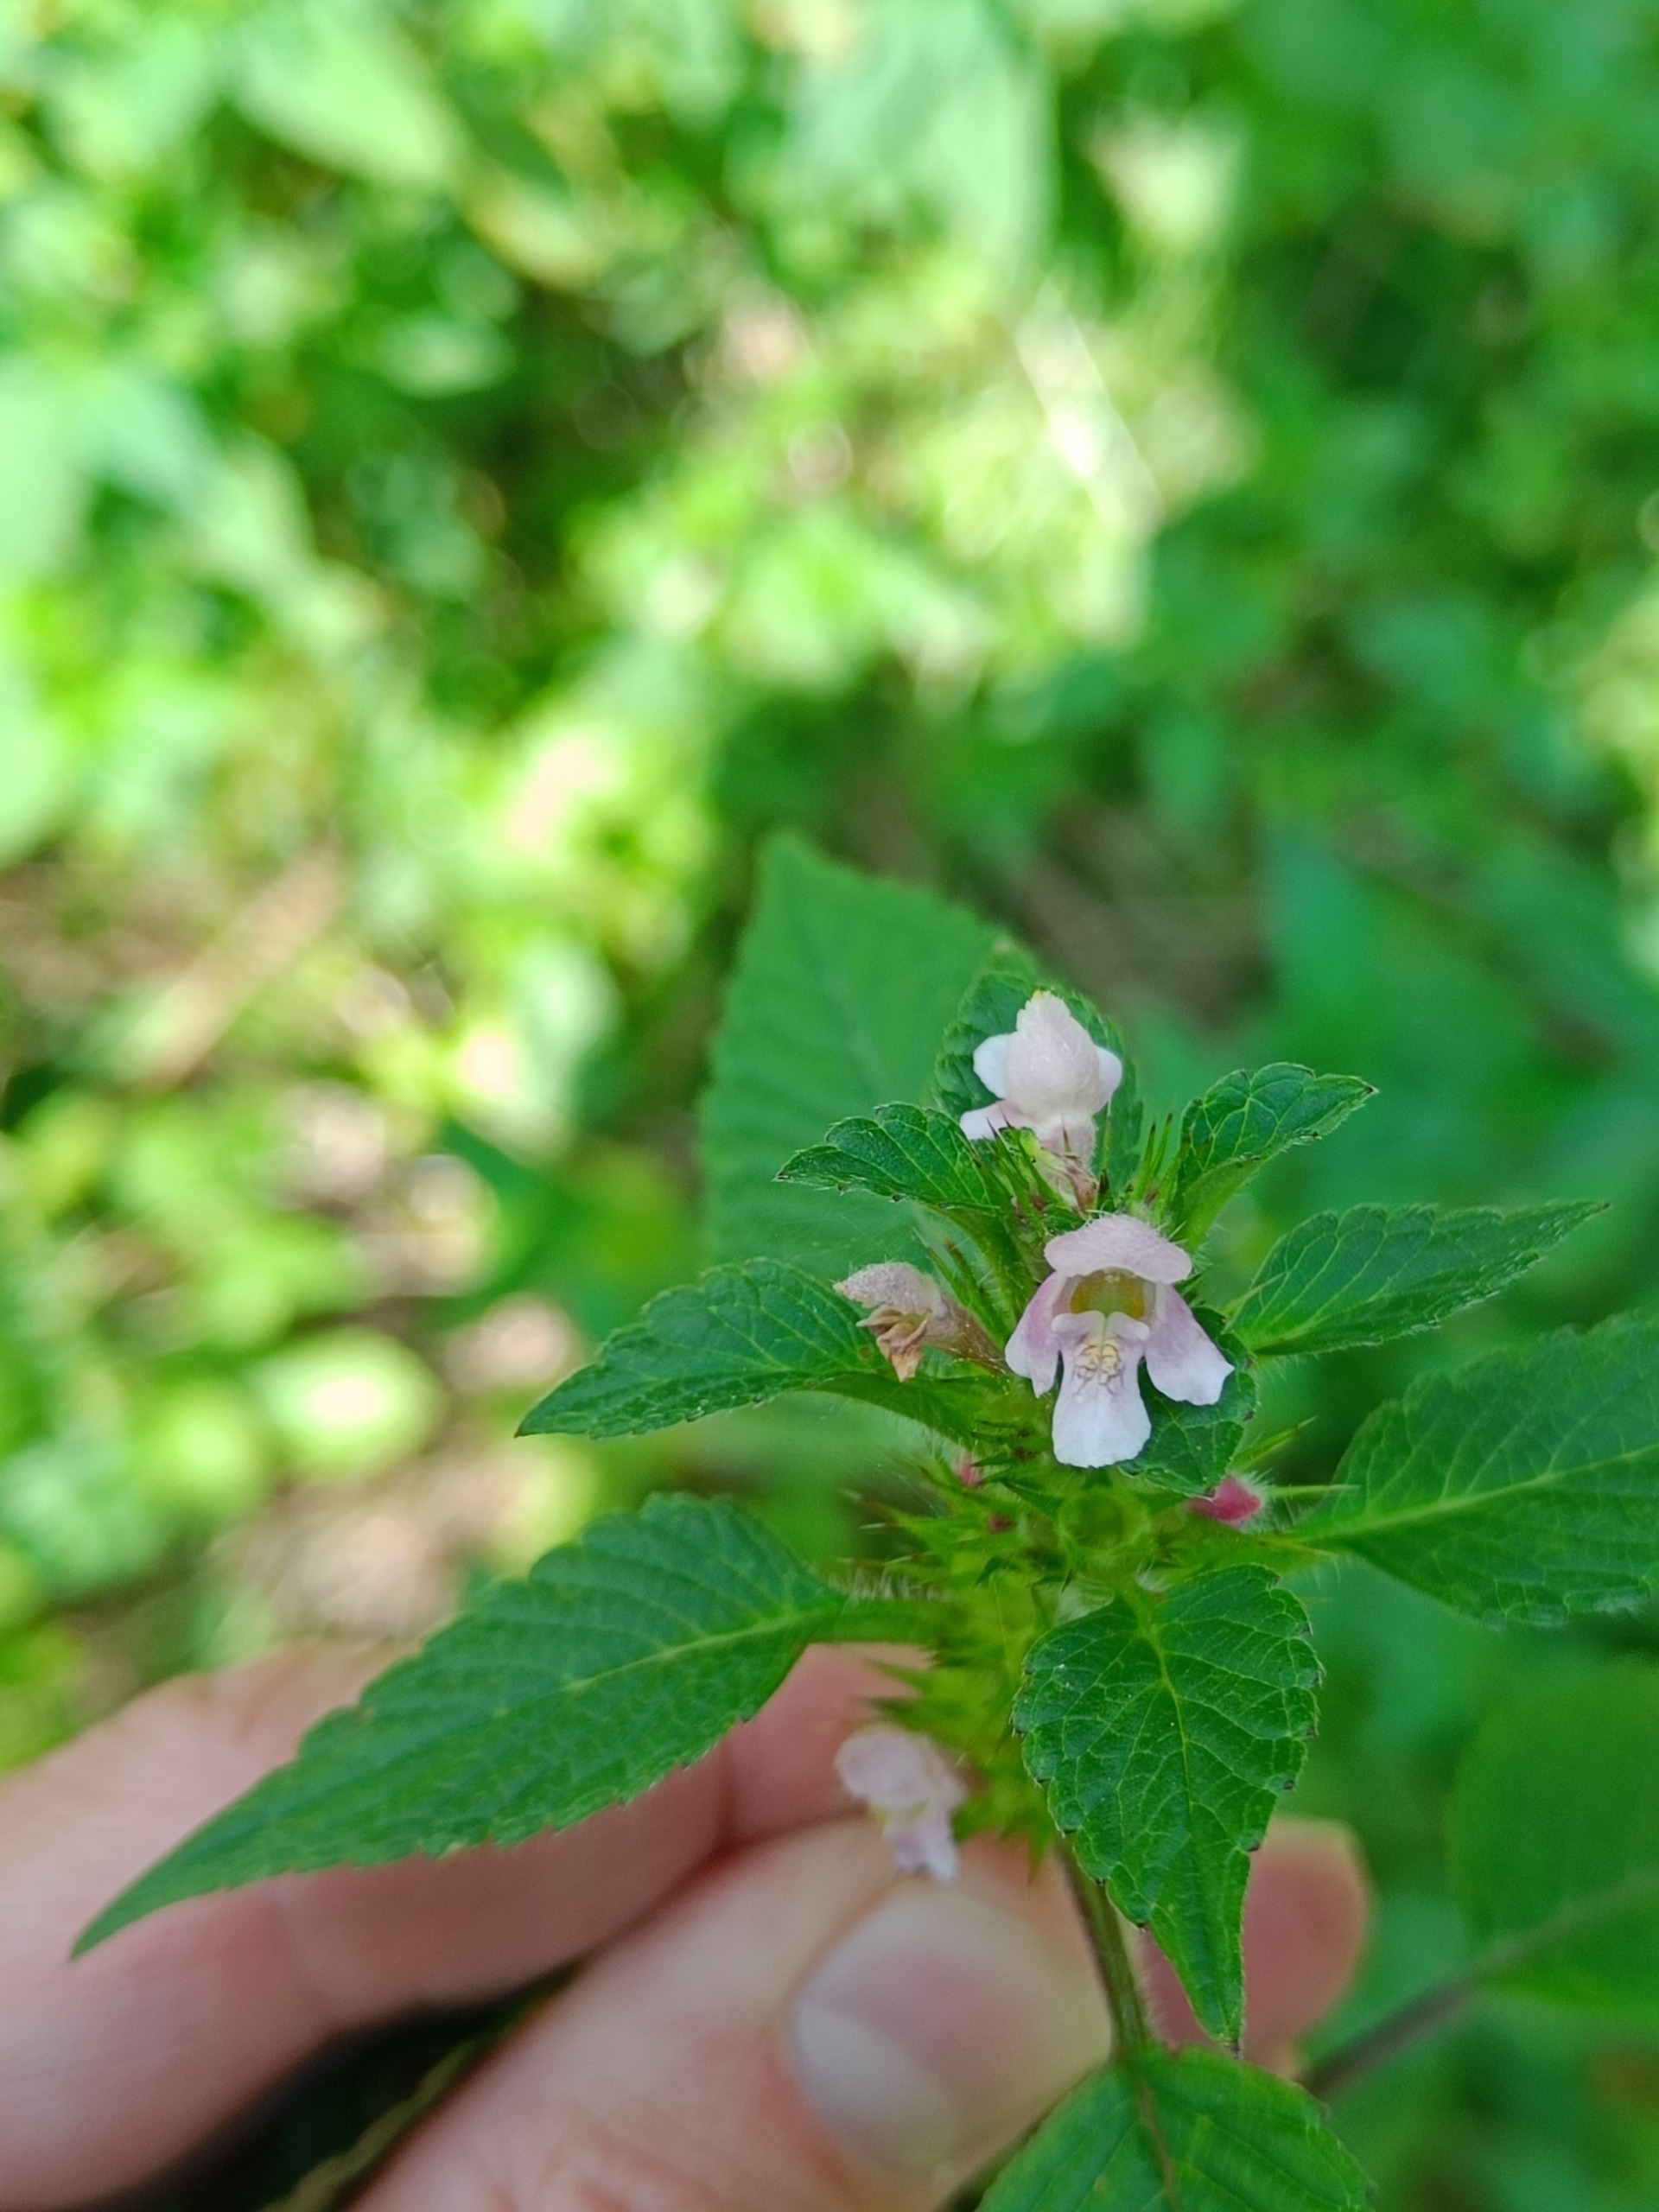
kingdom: Plantae
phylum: Tracheophyta
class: Magnoliopsida
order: Lamiales
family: Lamiaceae
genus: Galeopsis
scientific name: Galeopsis tetrahit
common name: Almindelig hanekro
